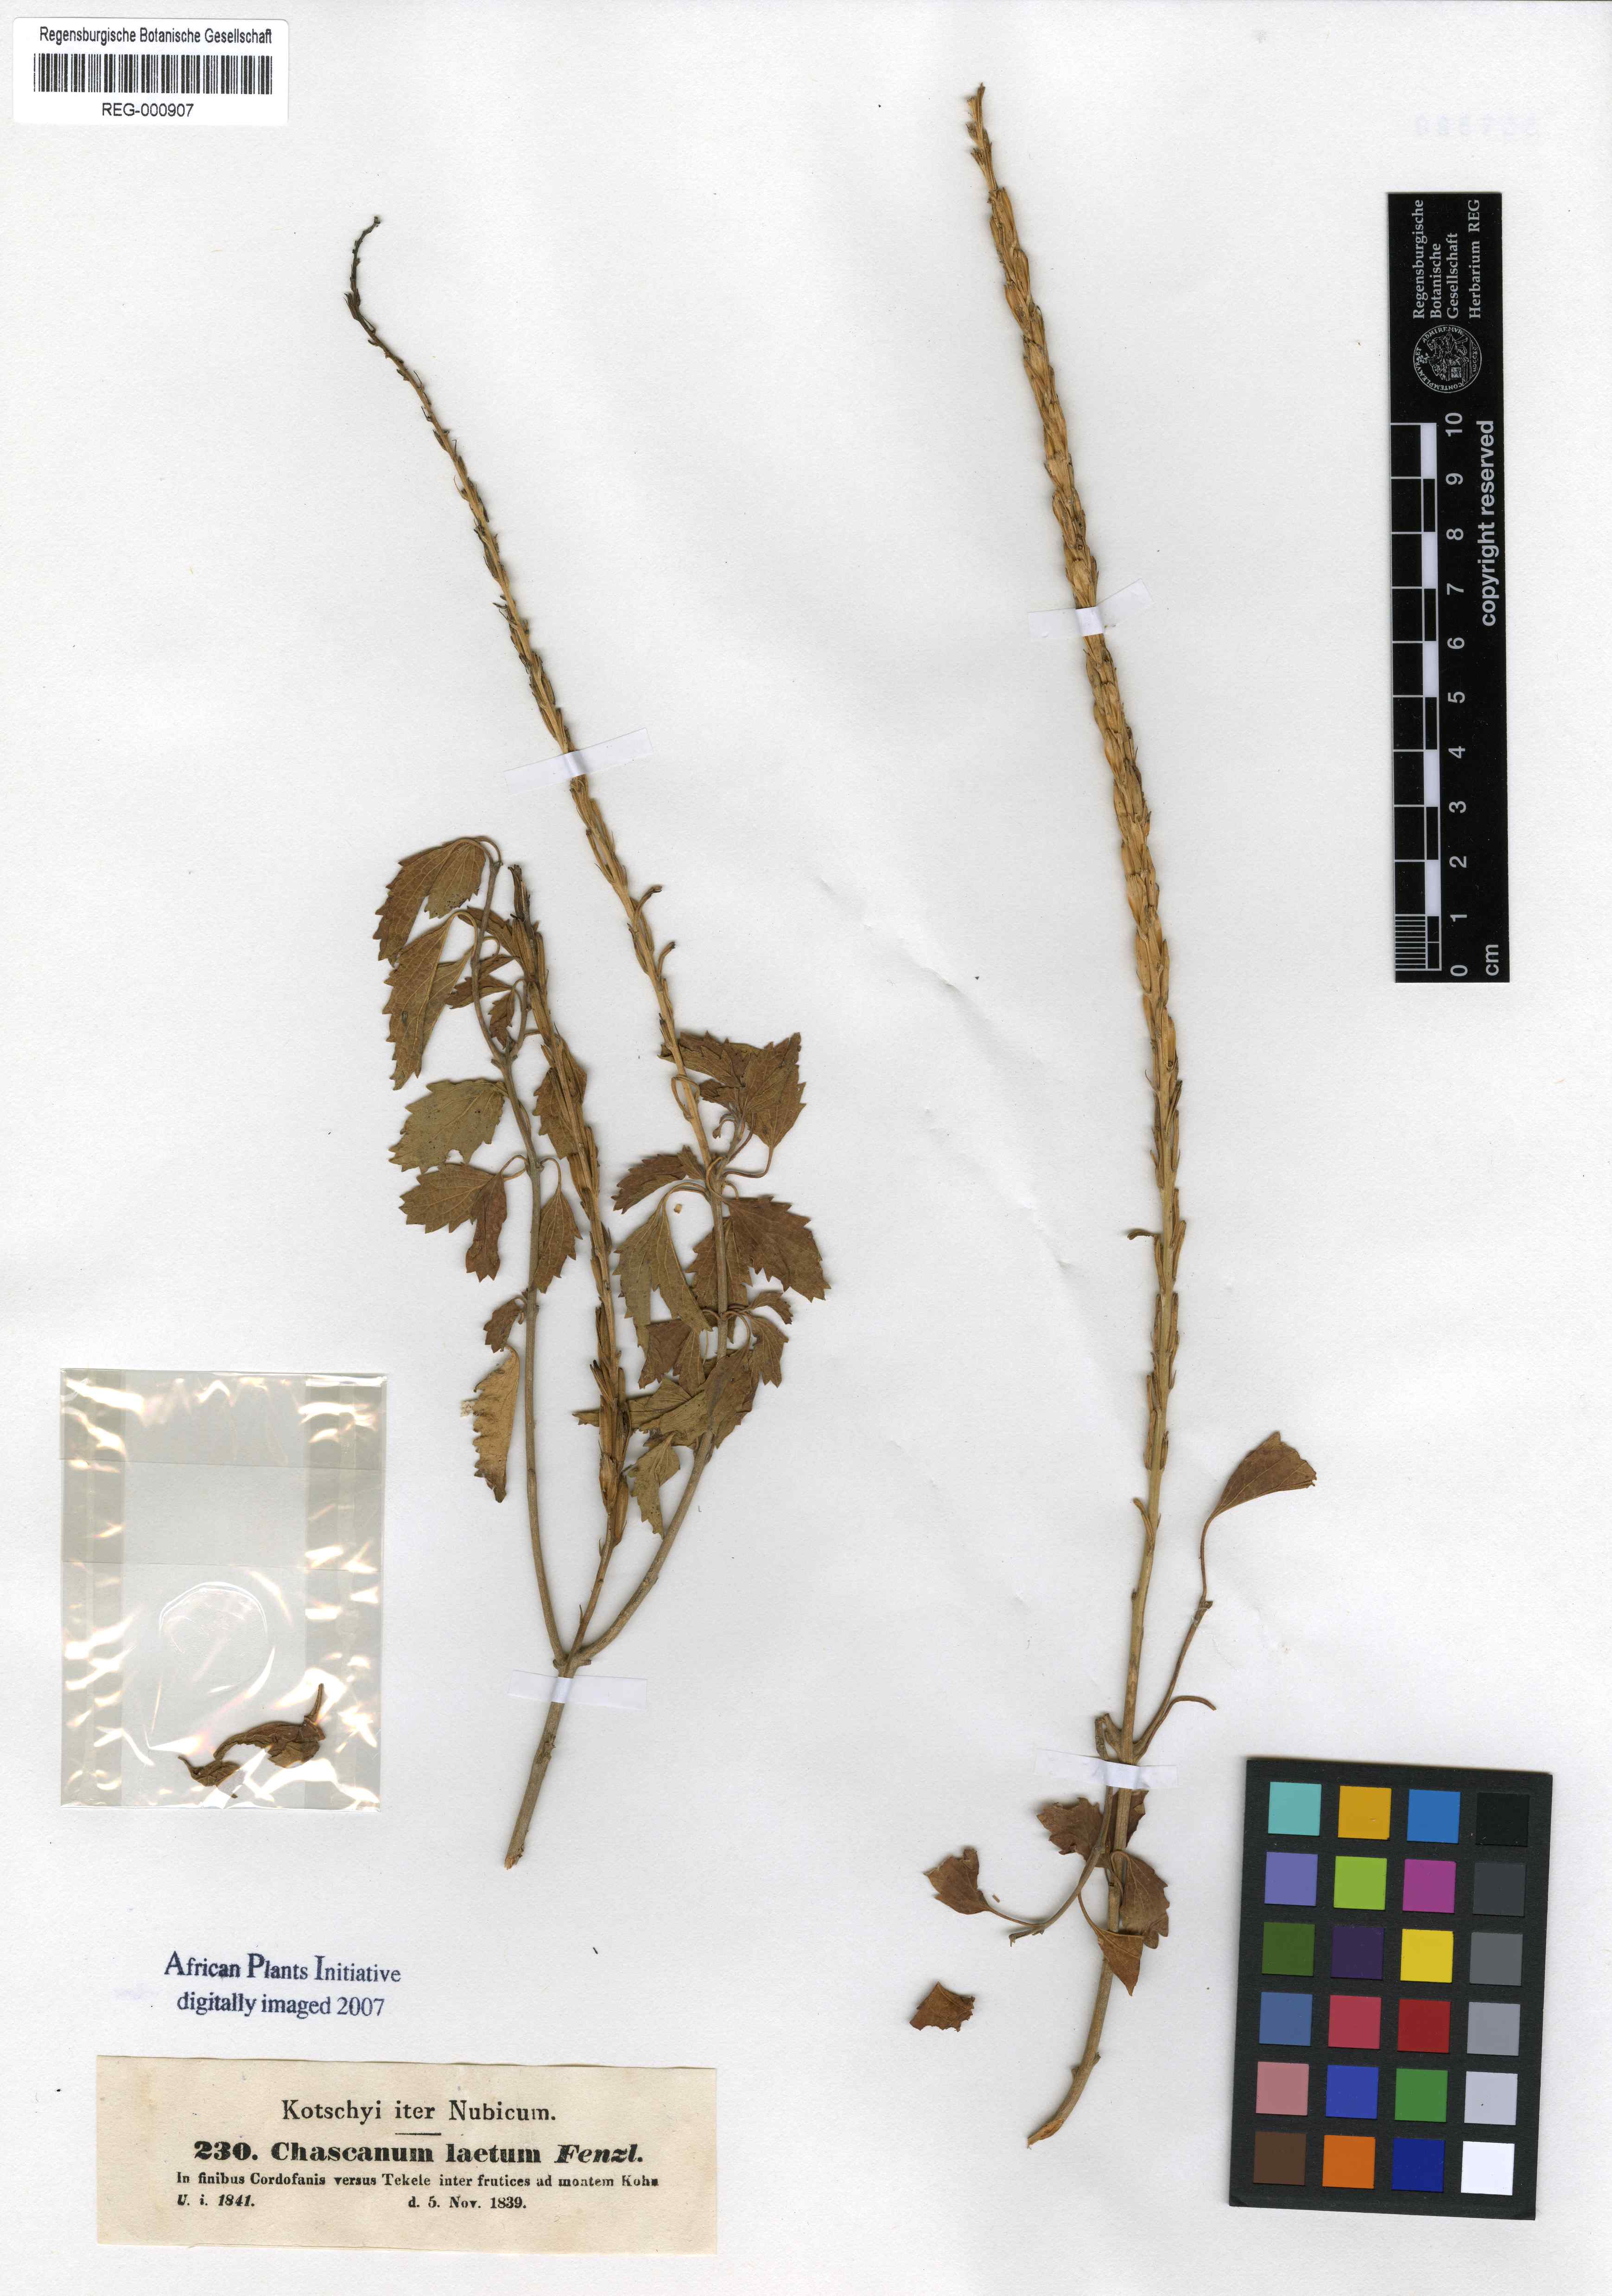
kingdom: Plantae
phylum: Tracheophyta
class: Magnoliopsida
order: Lamiales
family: Verbenaceae
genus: Chascanum
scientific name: Chascanum laetum
